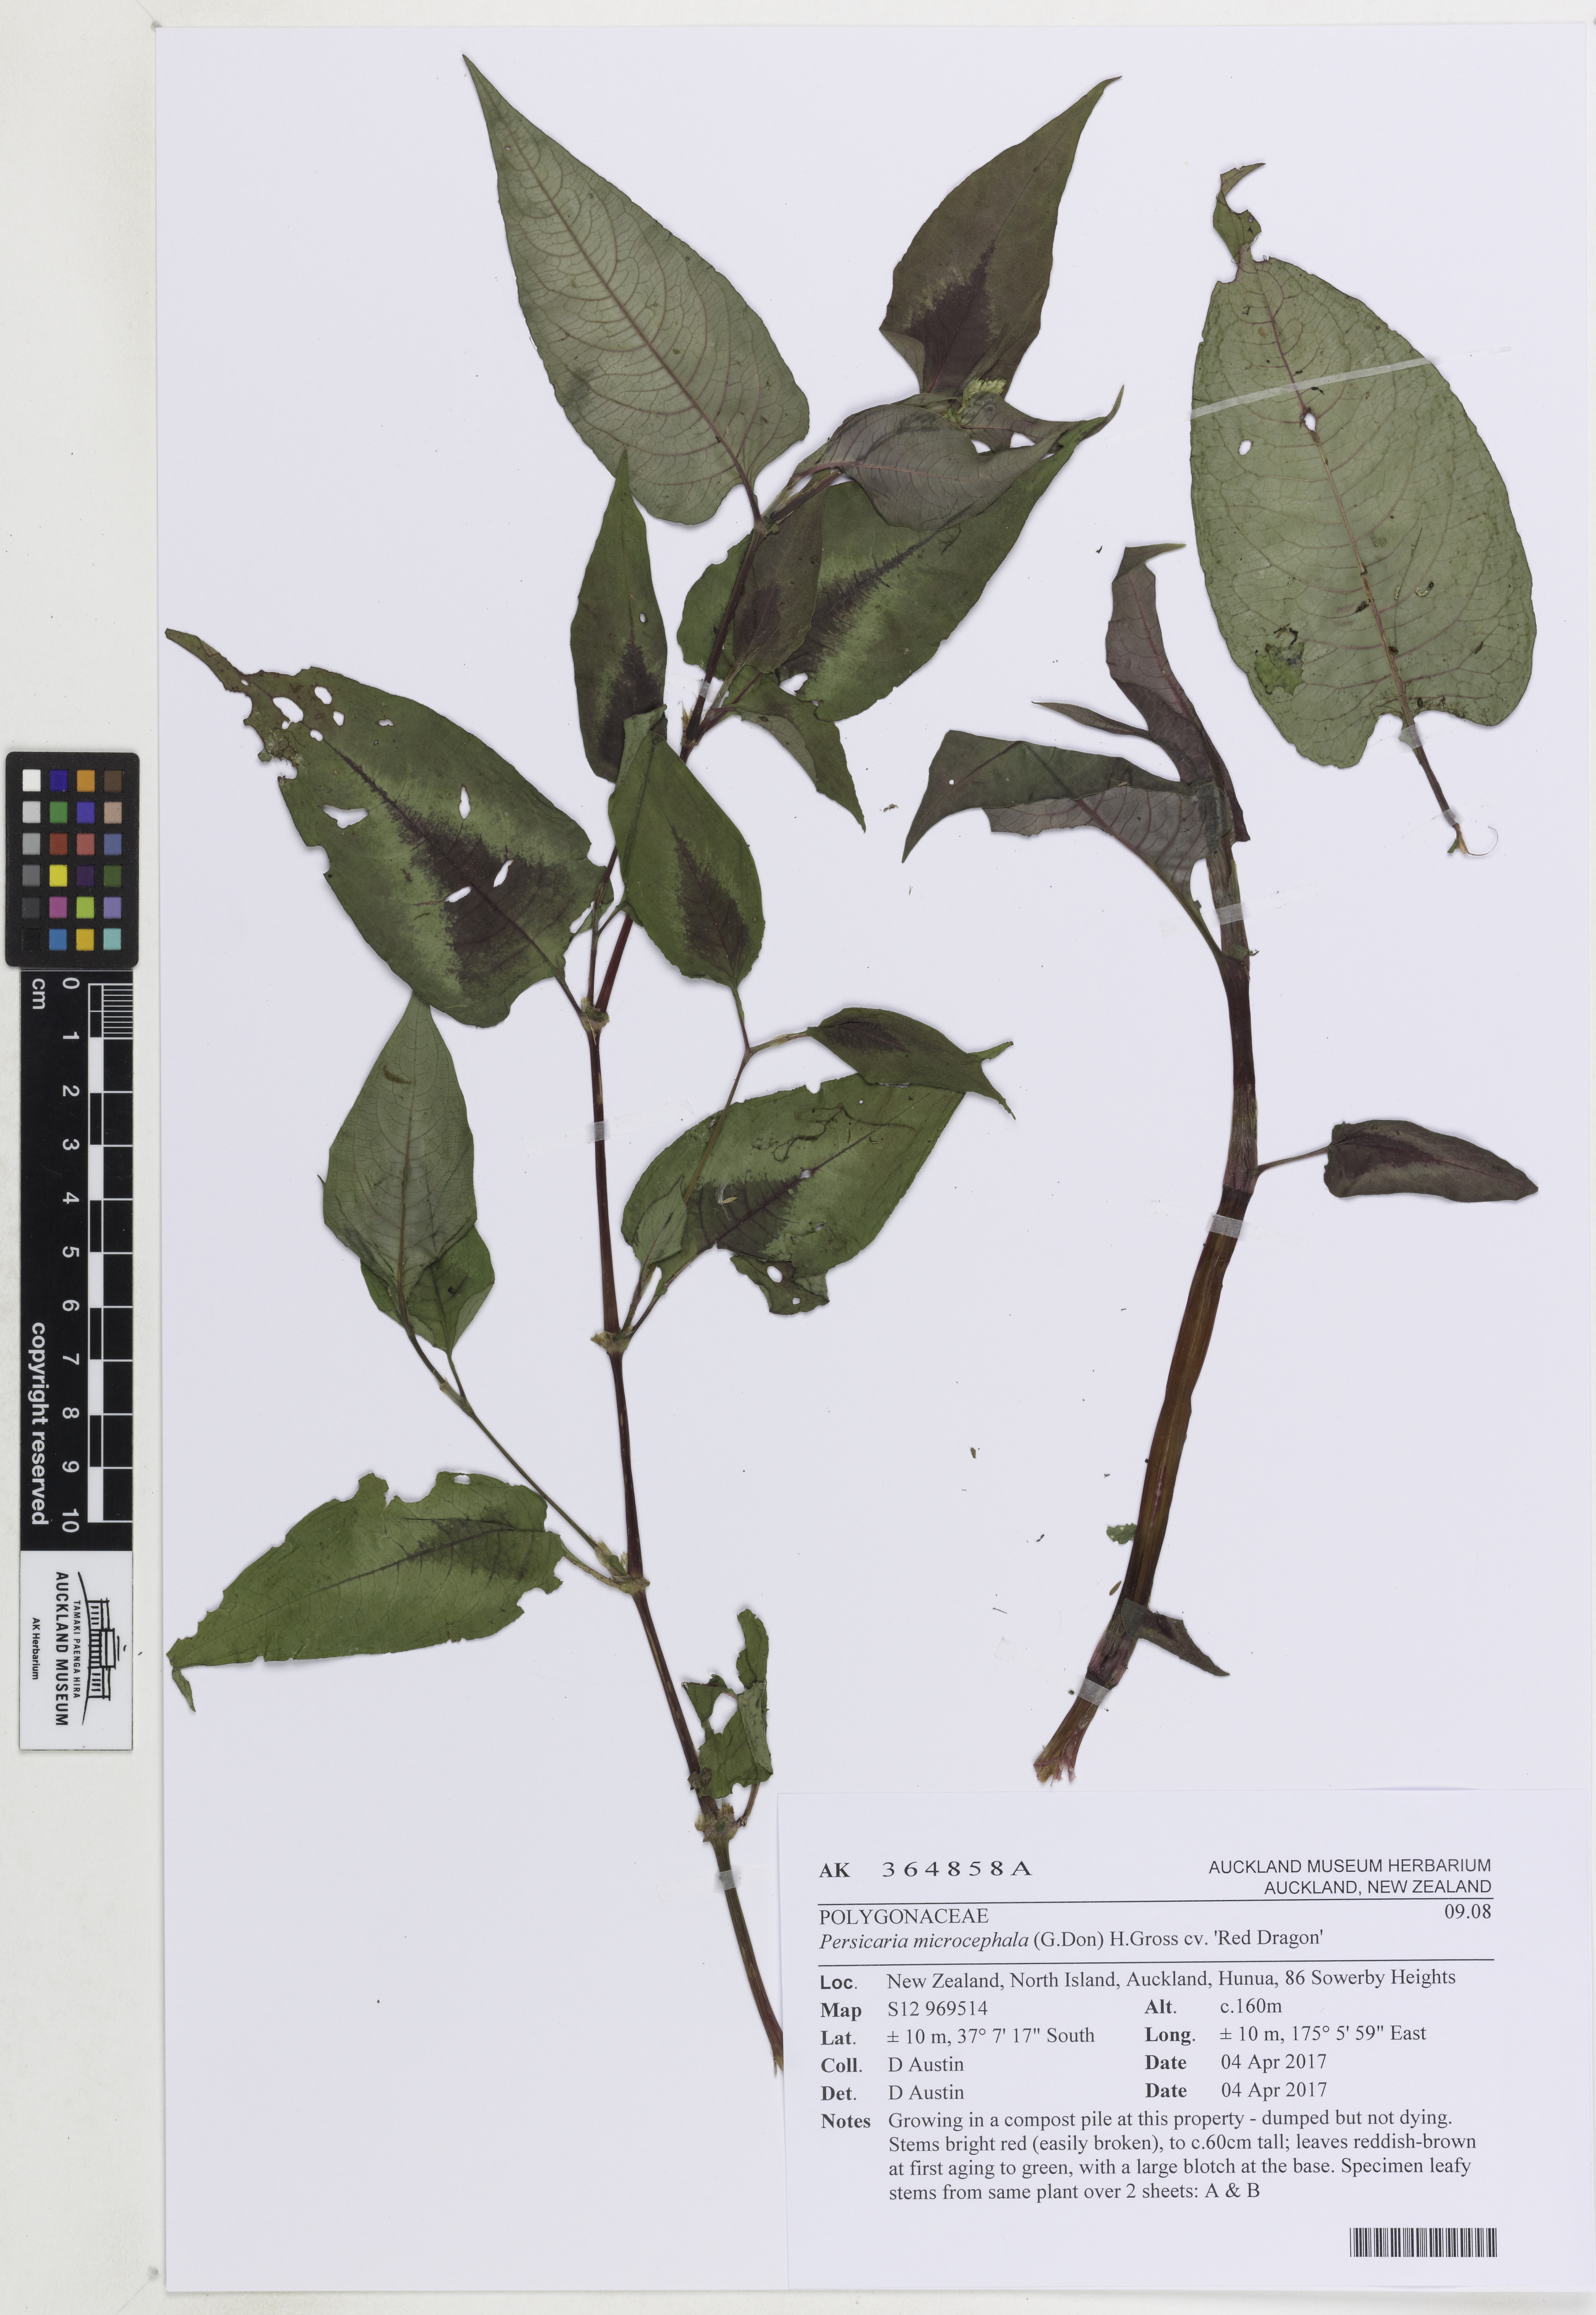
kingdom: Plantae
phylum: Tracheophyta
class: Magnoliopsida
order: Caryophyllales
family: Polygonaceae
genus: Persicaria
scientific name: Persicaria microcephala
